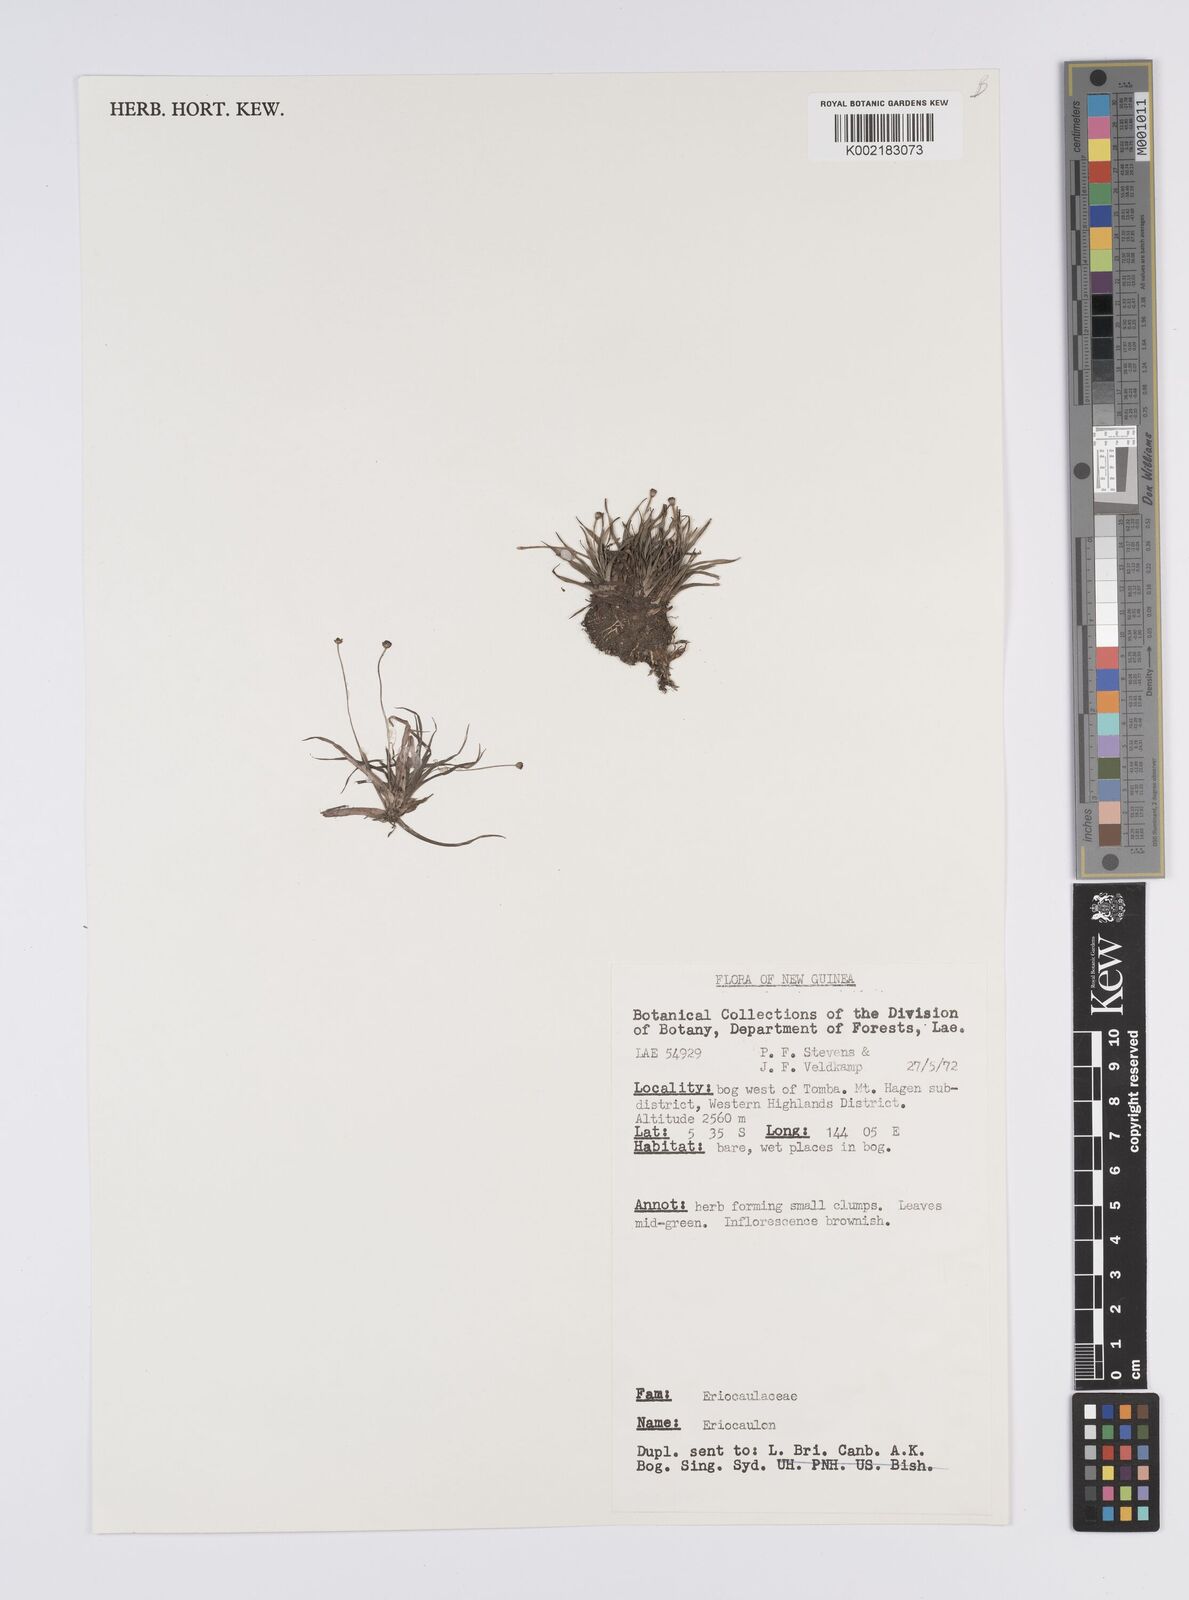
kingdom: Plantae
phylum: Tracheophyta
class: Liliopsida
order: Poales
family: Eriocaulaceae
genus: Eriocaulon
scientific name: Eriocaulon
